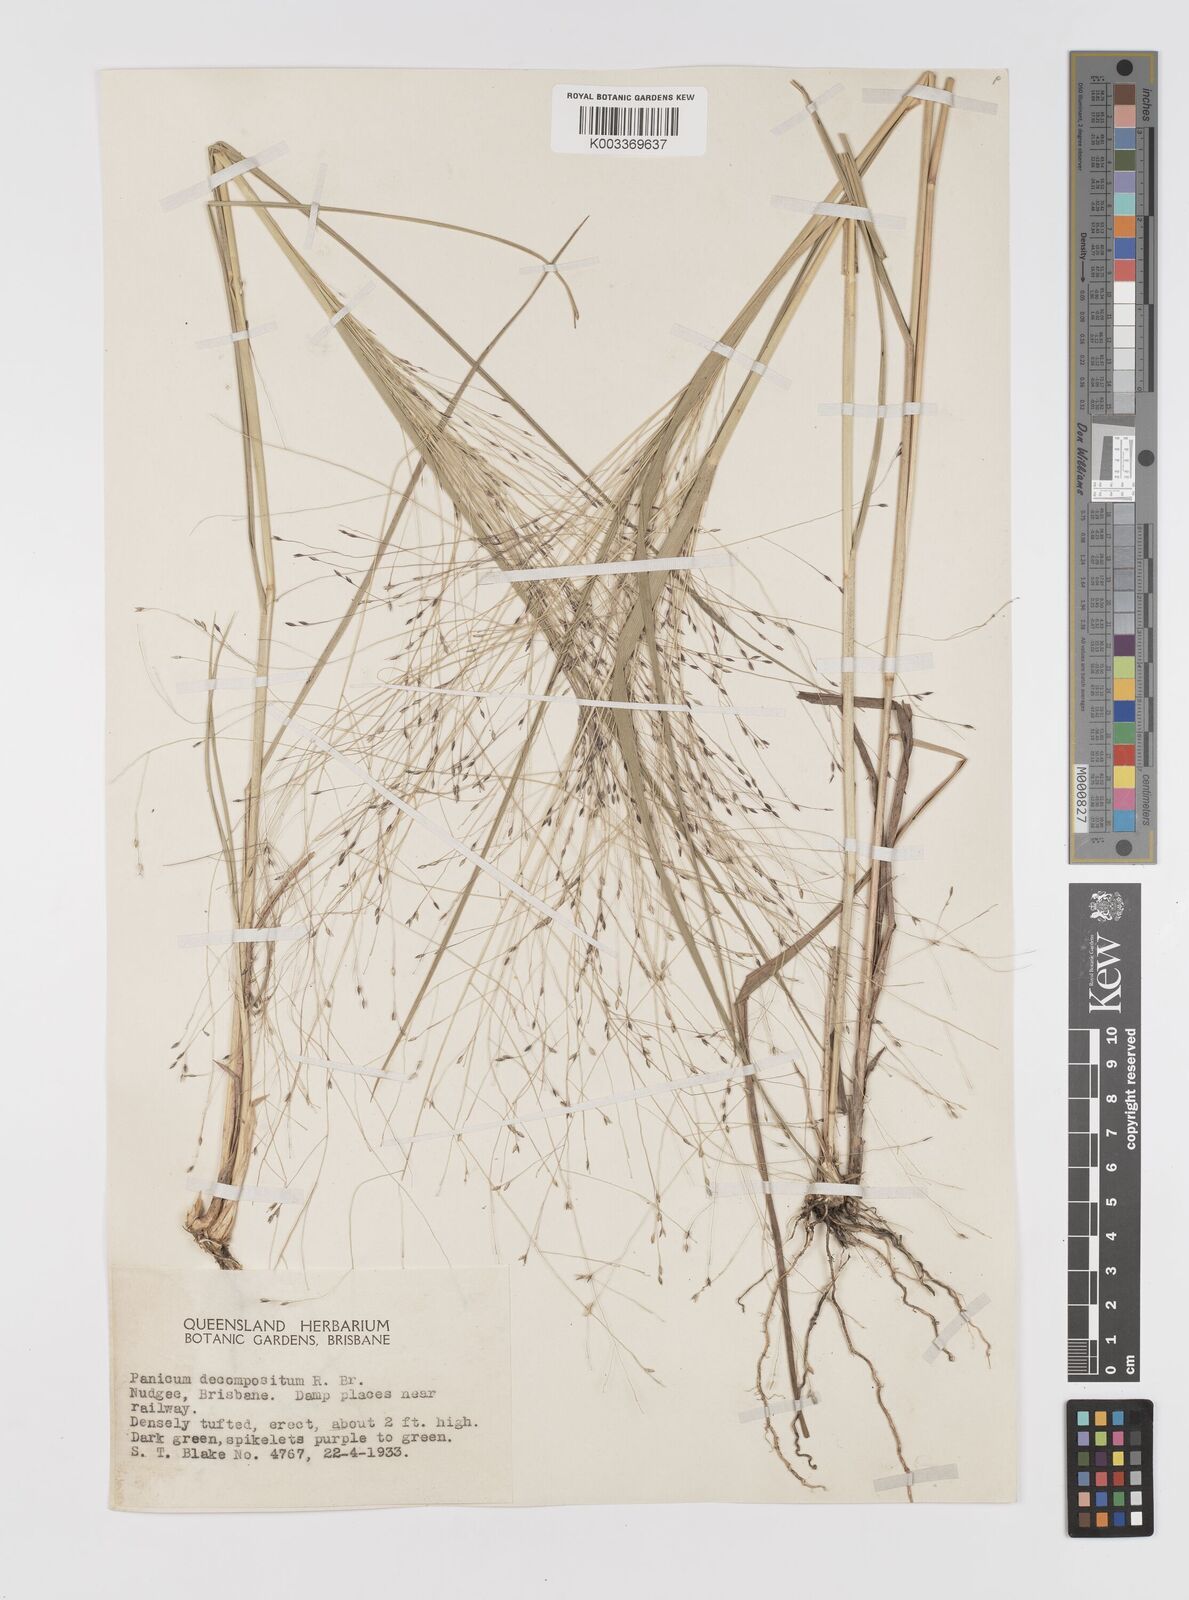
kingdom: Plantae
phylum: Tracheophyta
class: Liliopsida
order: Poales
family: Poaceae
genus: Panicum
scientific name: Panicum decompositum
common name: Australian millet
